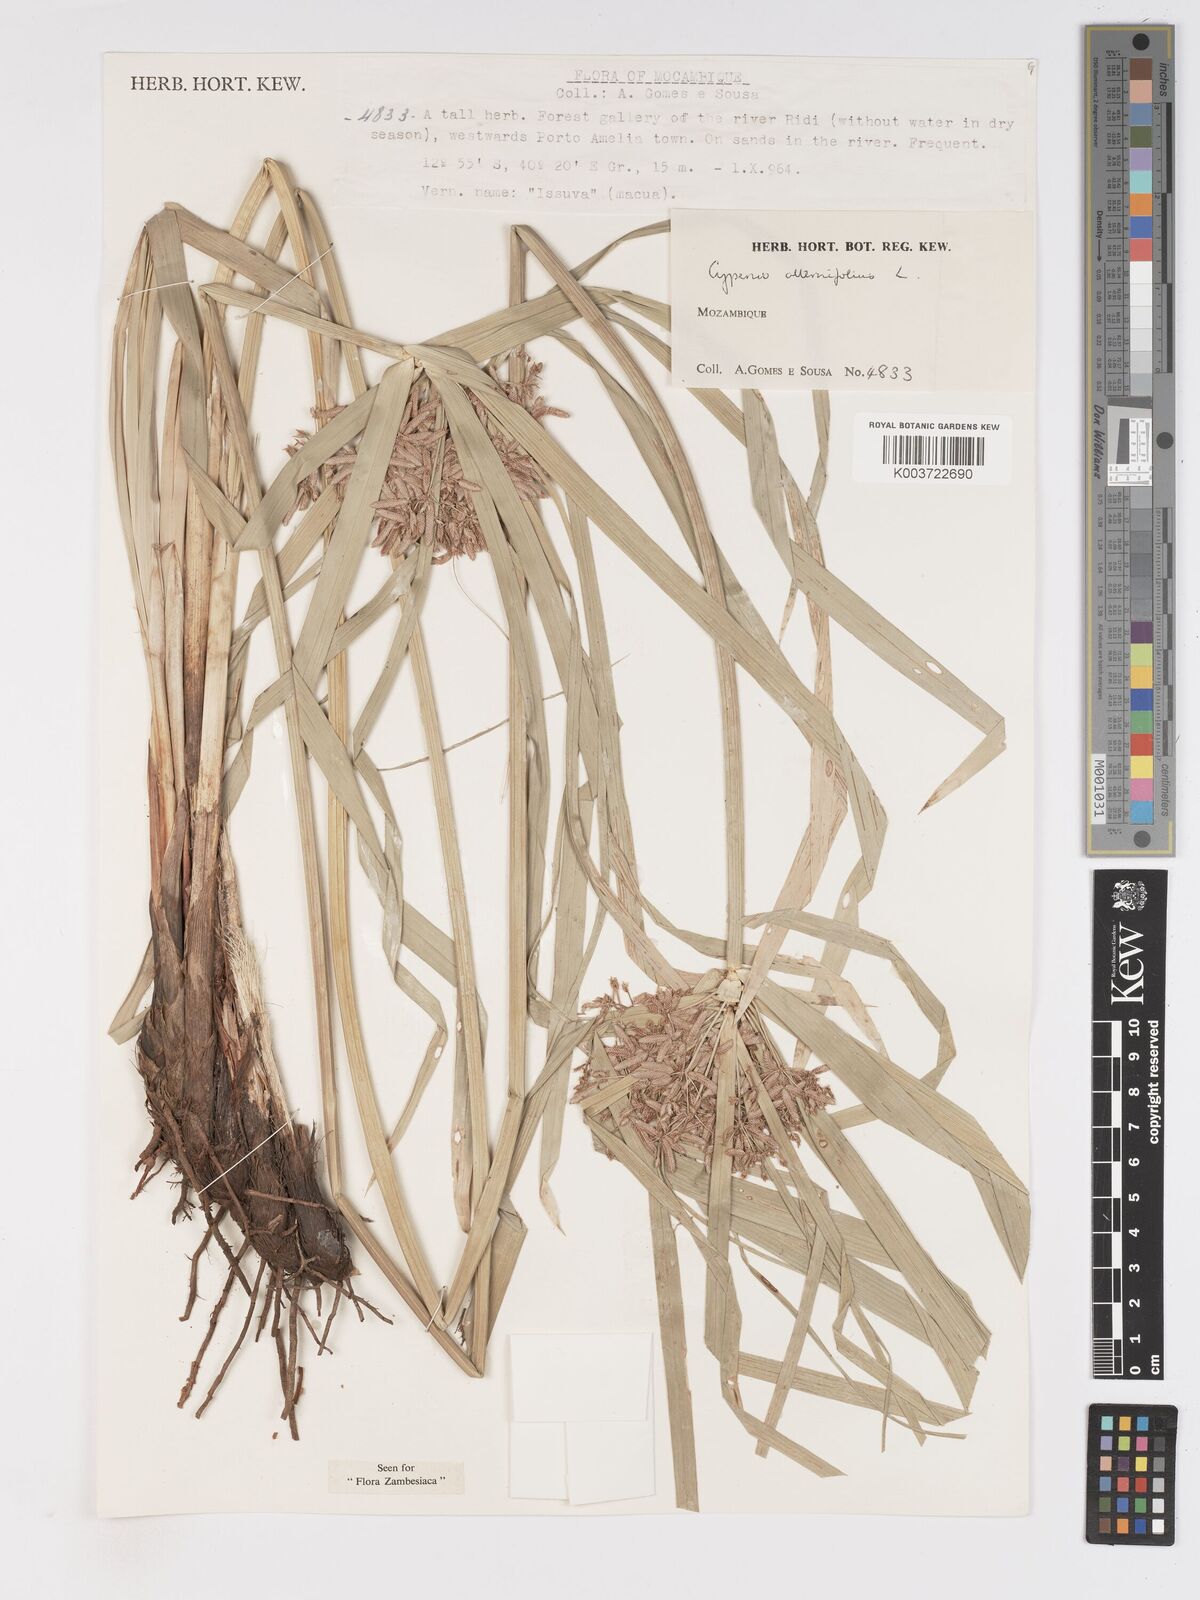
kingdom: Plantae
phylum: Tracheophyta
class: Liliopsida
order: Poales
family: Cyperaceae
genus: Cyperus
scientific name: Cyperus alternifolius
